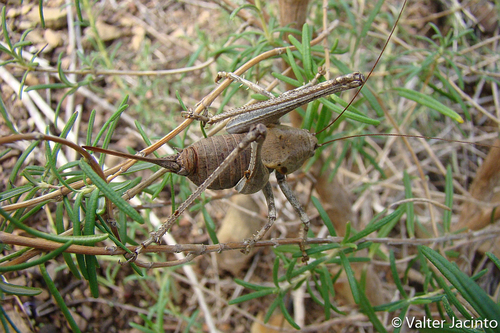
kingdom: Animalia
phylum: Arthropoda
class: Insecta
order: Orthoptera
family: Tettigoniidae
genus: Thyreonotus
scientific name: Thyreonotus bidens
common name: Two-toothed bush-cricket
